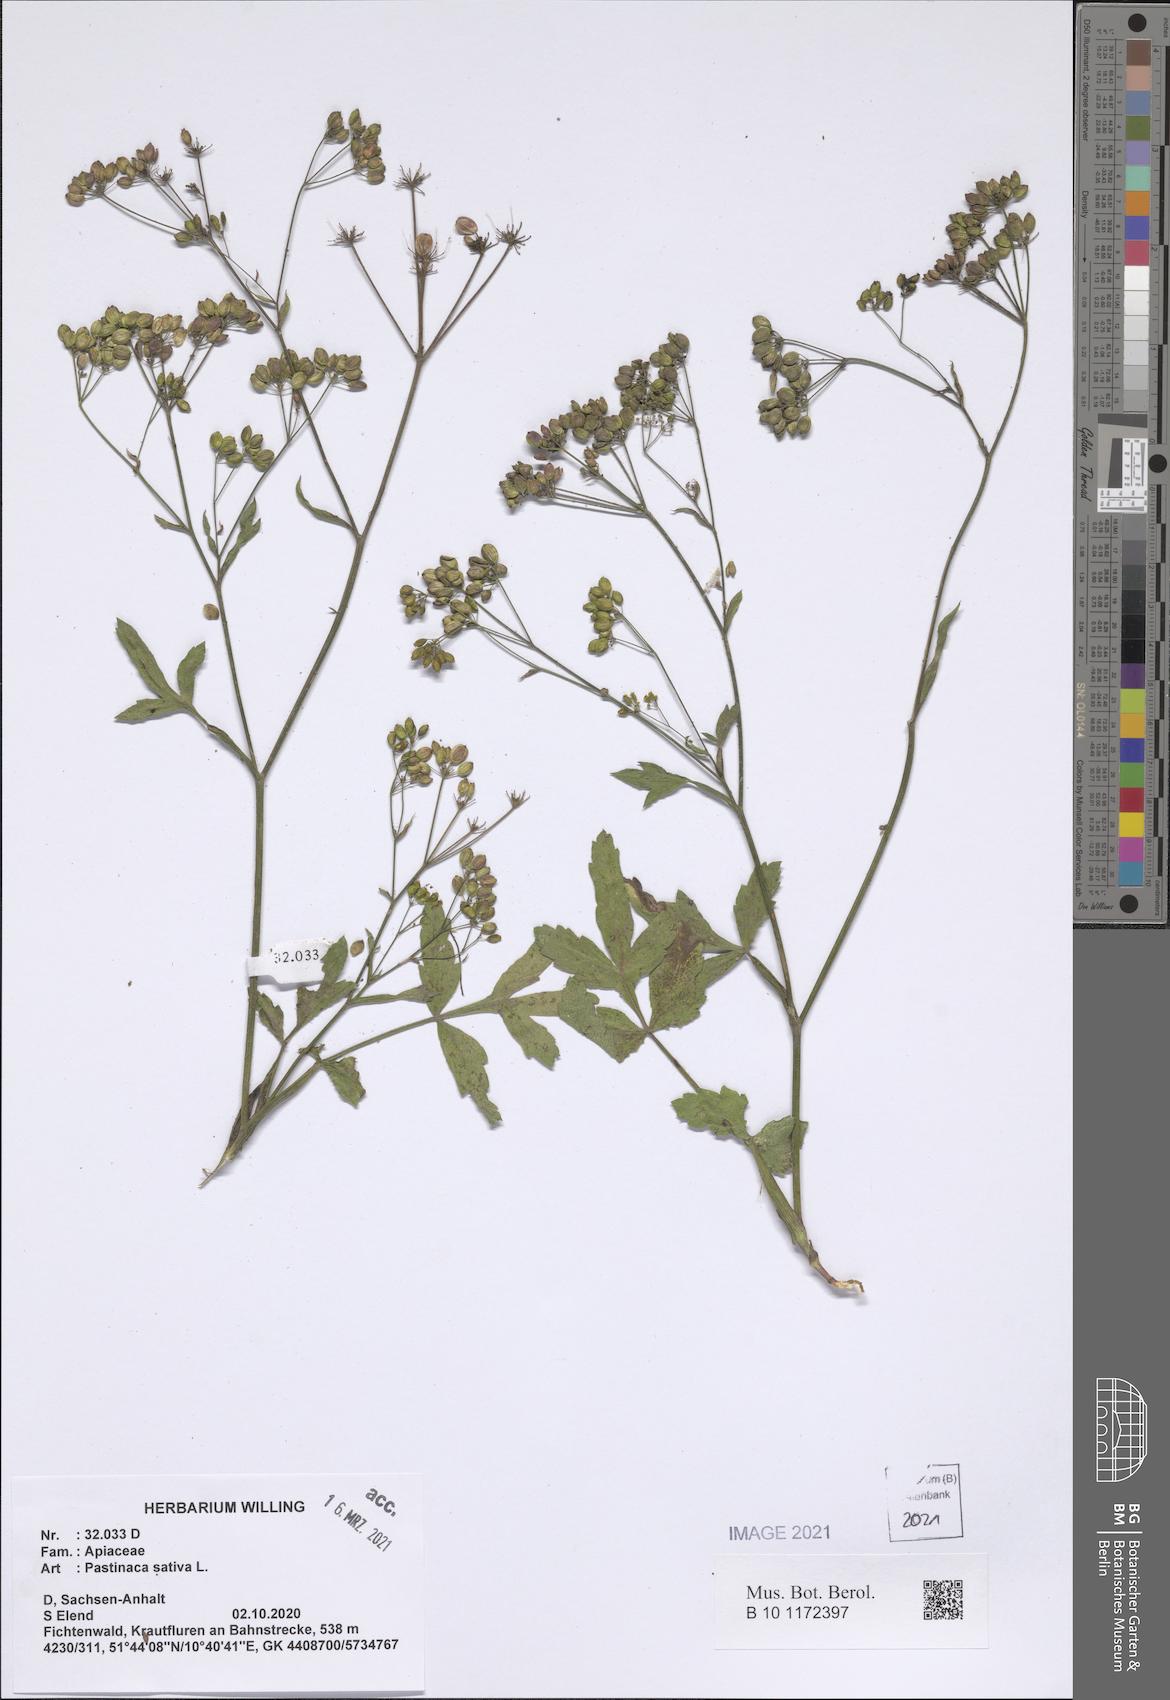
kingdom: Plantae
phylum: Tracheophyta
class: Magnoliopsida
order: Apiales
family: Apiaceae
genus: Pastinaca
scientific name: Pastinaca sativa
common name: Wild parsnip
